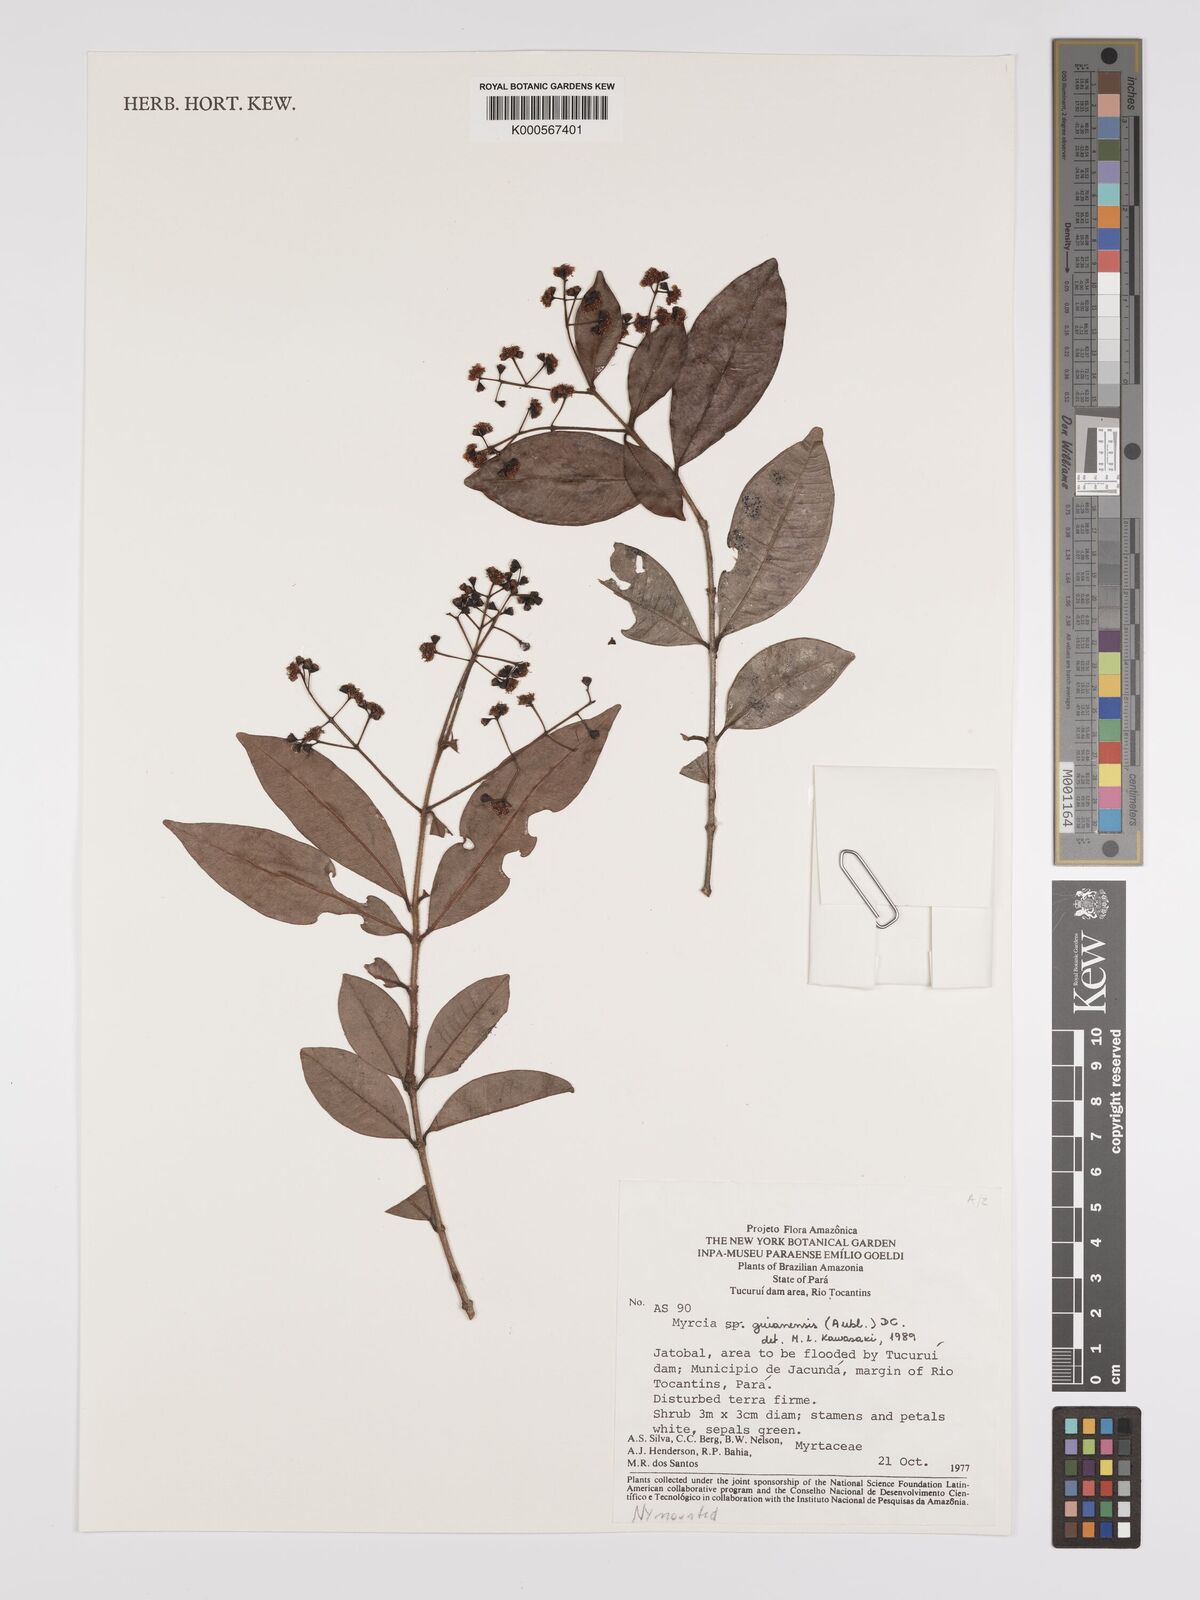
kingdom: Plantae
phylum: Tracheophyta
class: Magnoliopsida
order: Myrtales
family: Myrtaceae
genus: Myrcia
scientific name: Myrcia guianensis
